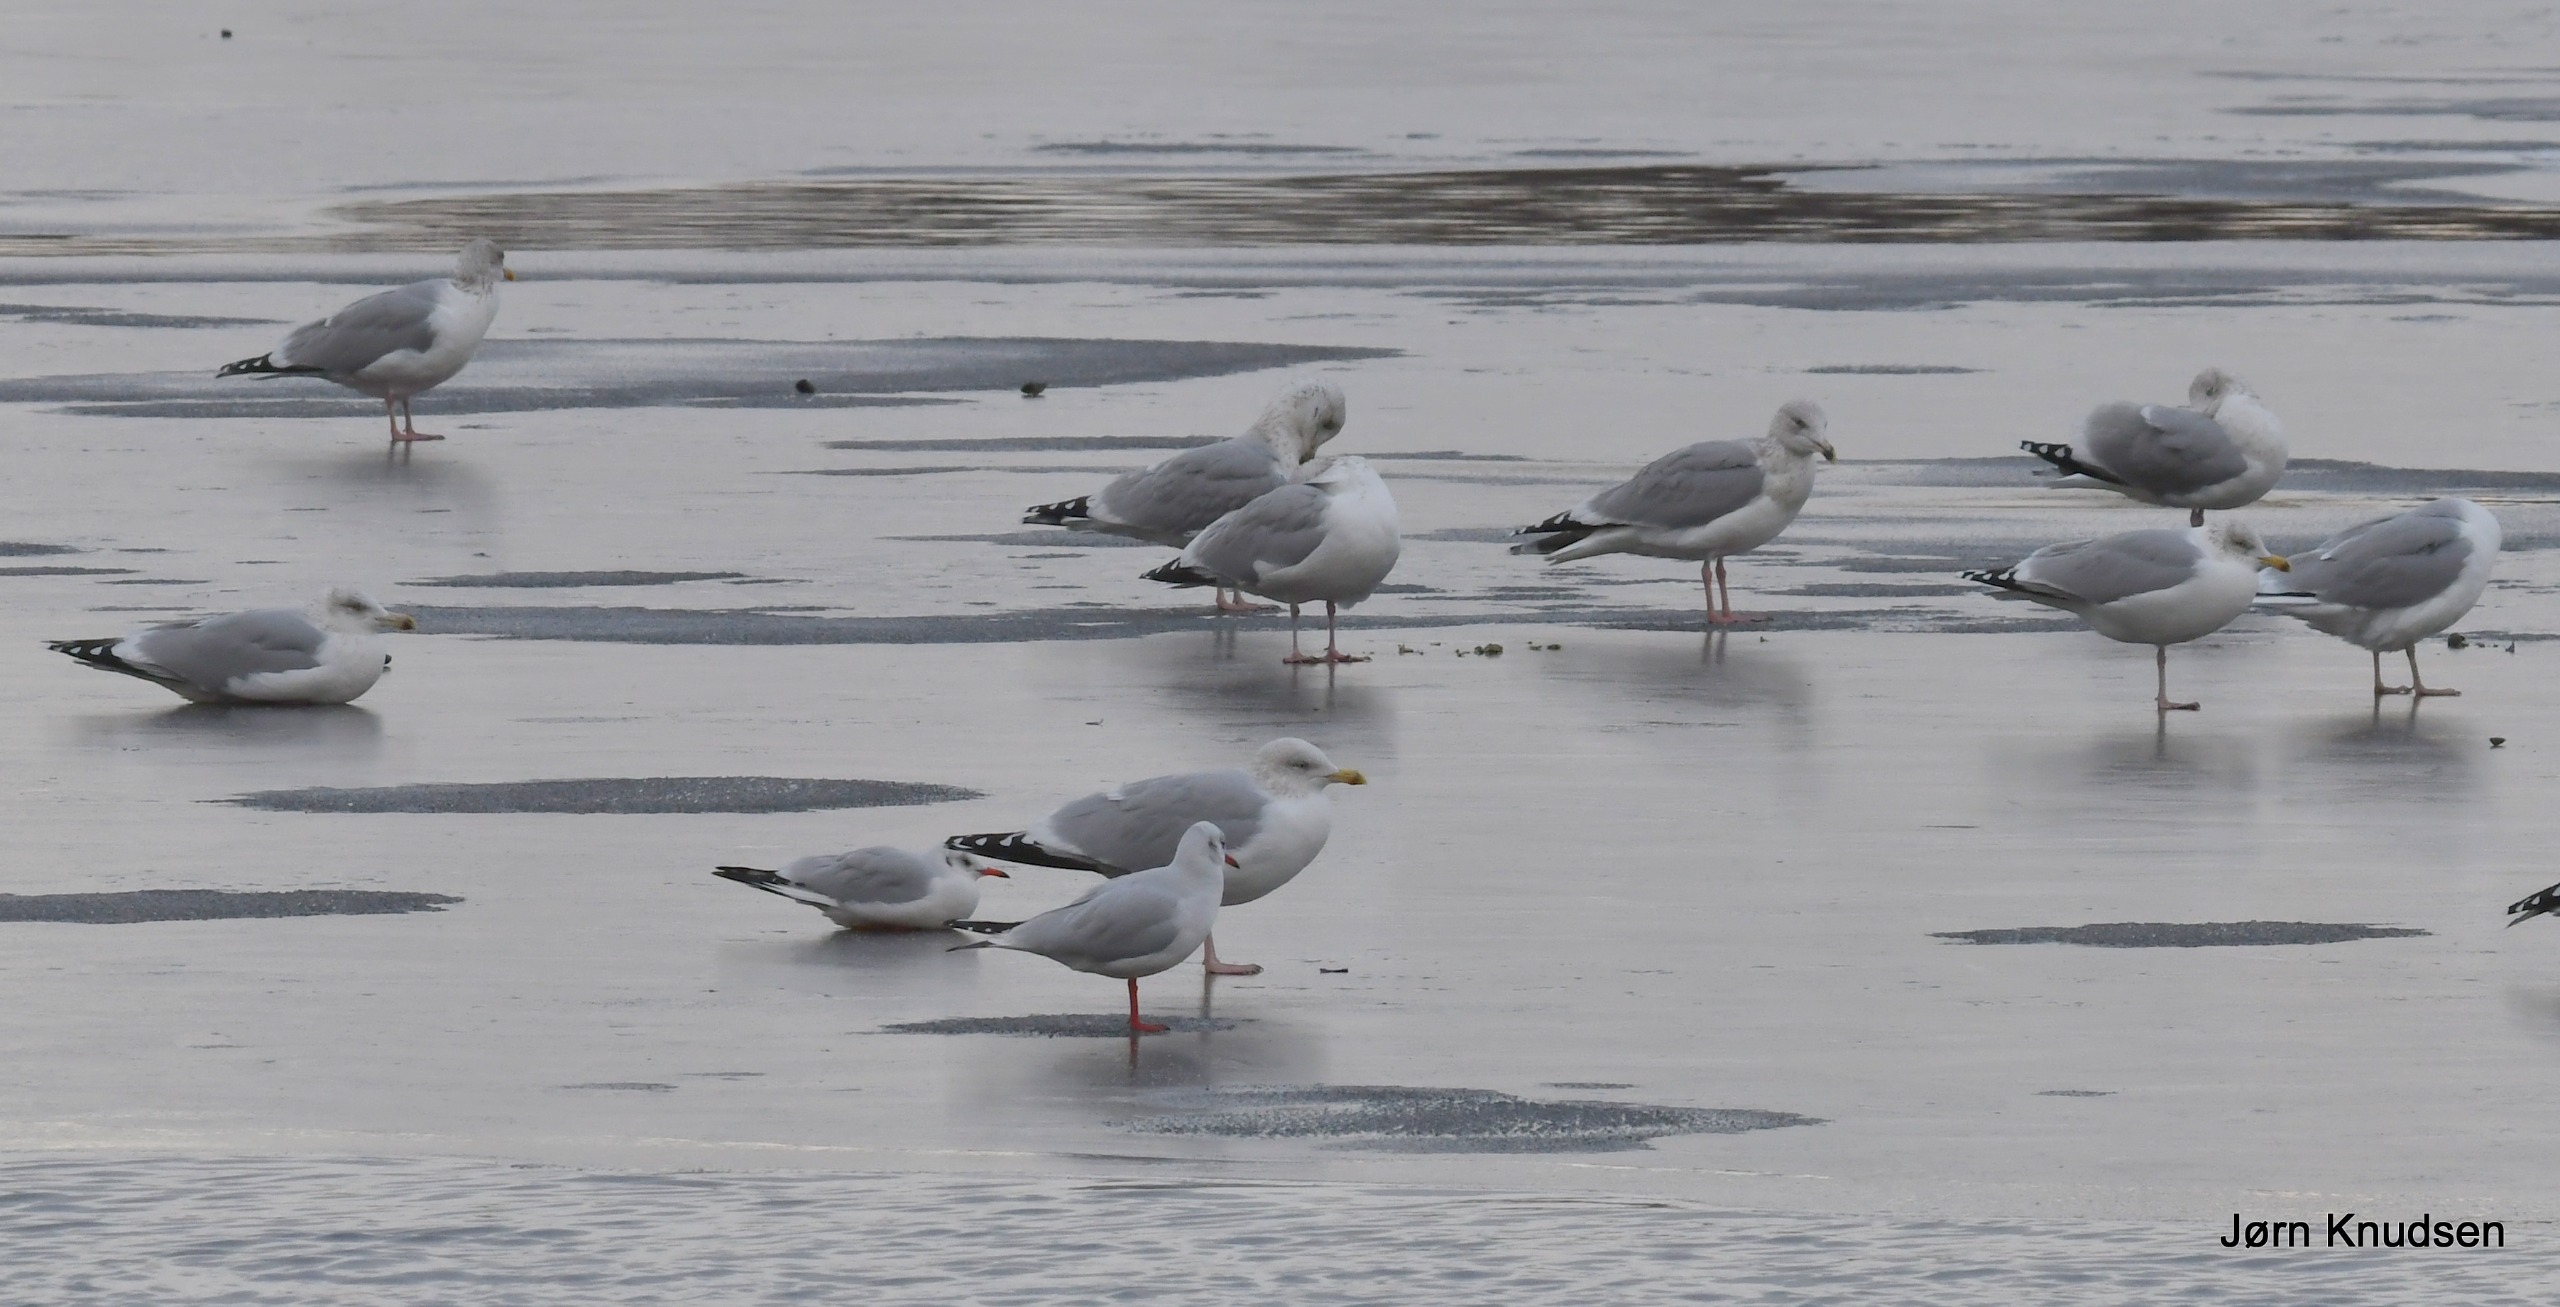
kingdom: Animalia
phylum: Chordata
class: Aves
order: Charadriiformes
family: Laridae
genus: Chroicocephalus
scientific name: Chroicocephalus ridibundus
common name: Hættemåge
